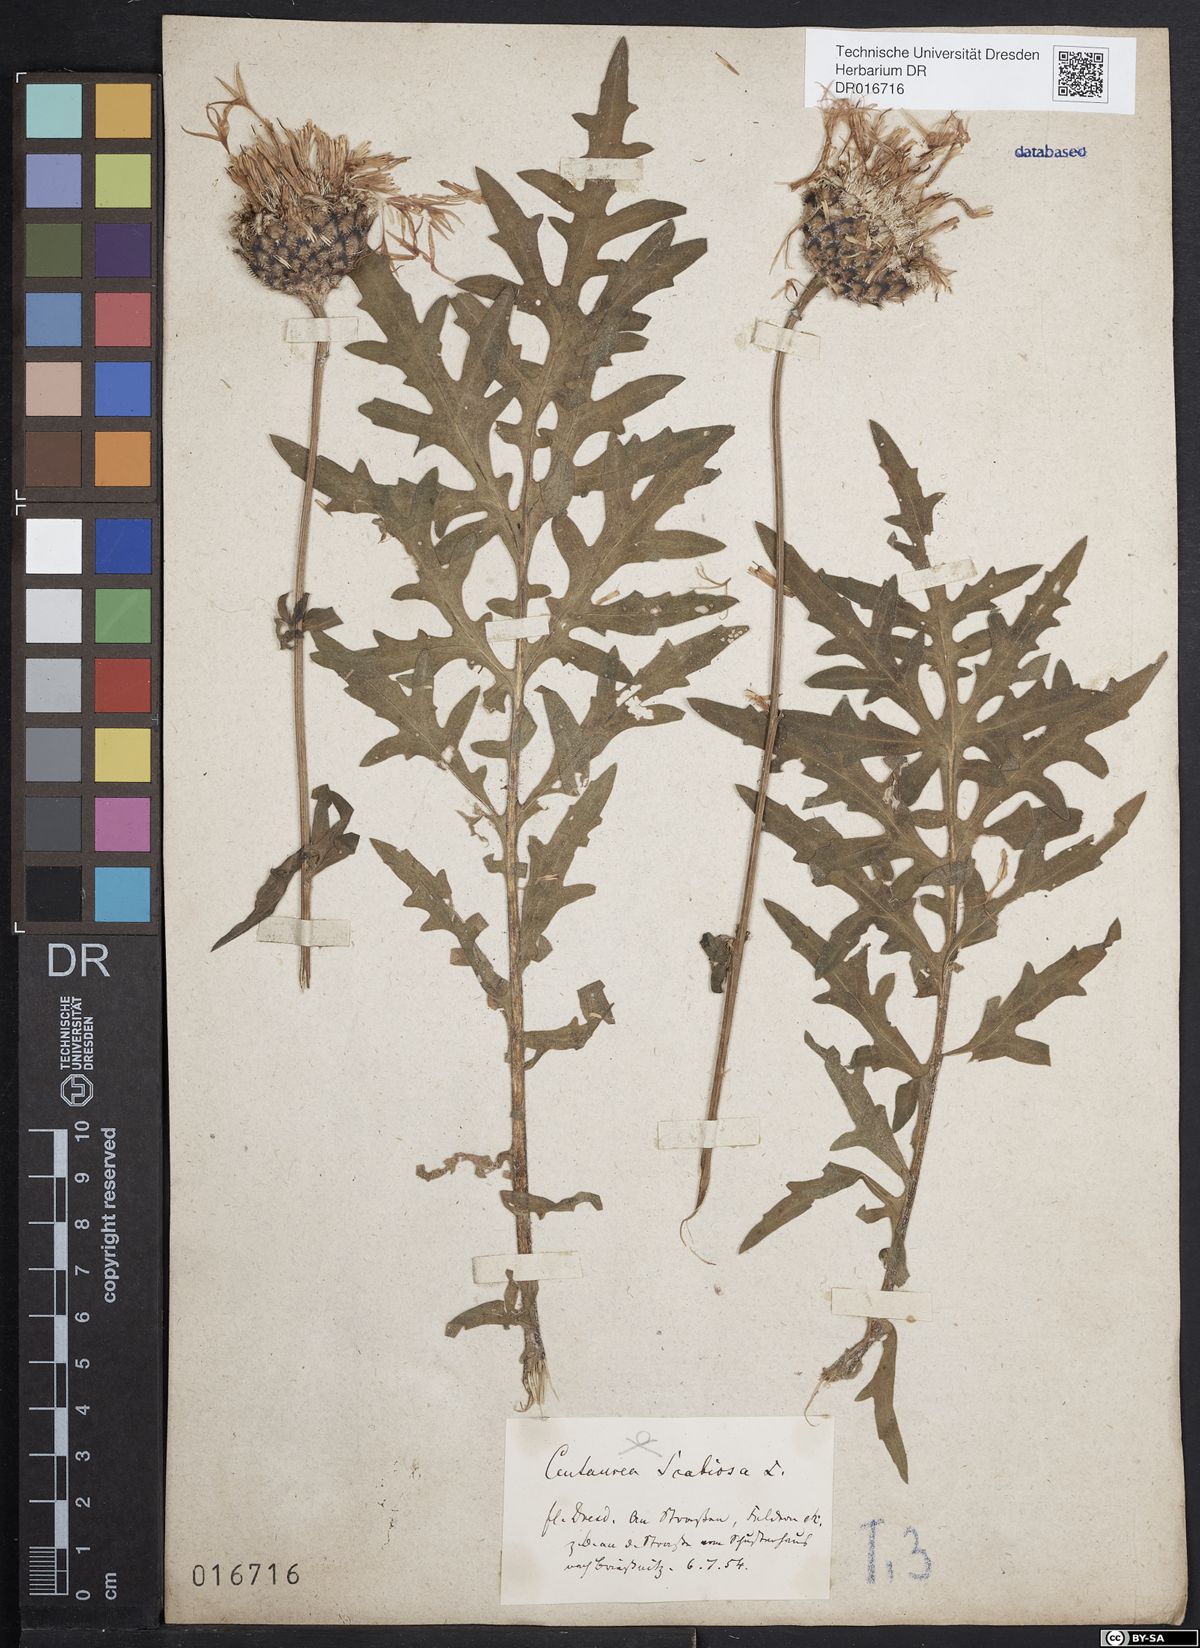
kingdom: Plantae
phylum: Tracheophyta
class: Magnoliopsida
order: Asterales
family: Asteraceae
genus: Centaurea
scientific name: Centaurea scabiosa
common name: Greater knapweed
